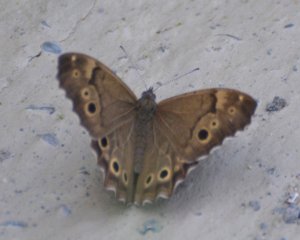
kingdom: Animalia
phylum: Arthropoda
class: Insecta
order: Lepidoptera
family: Nymphalidae
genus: Lethe
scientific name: Lethe anthedon
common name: Northern Pearly-Eye
